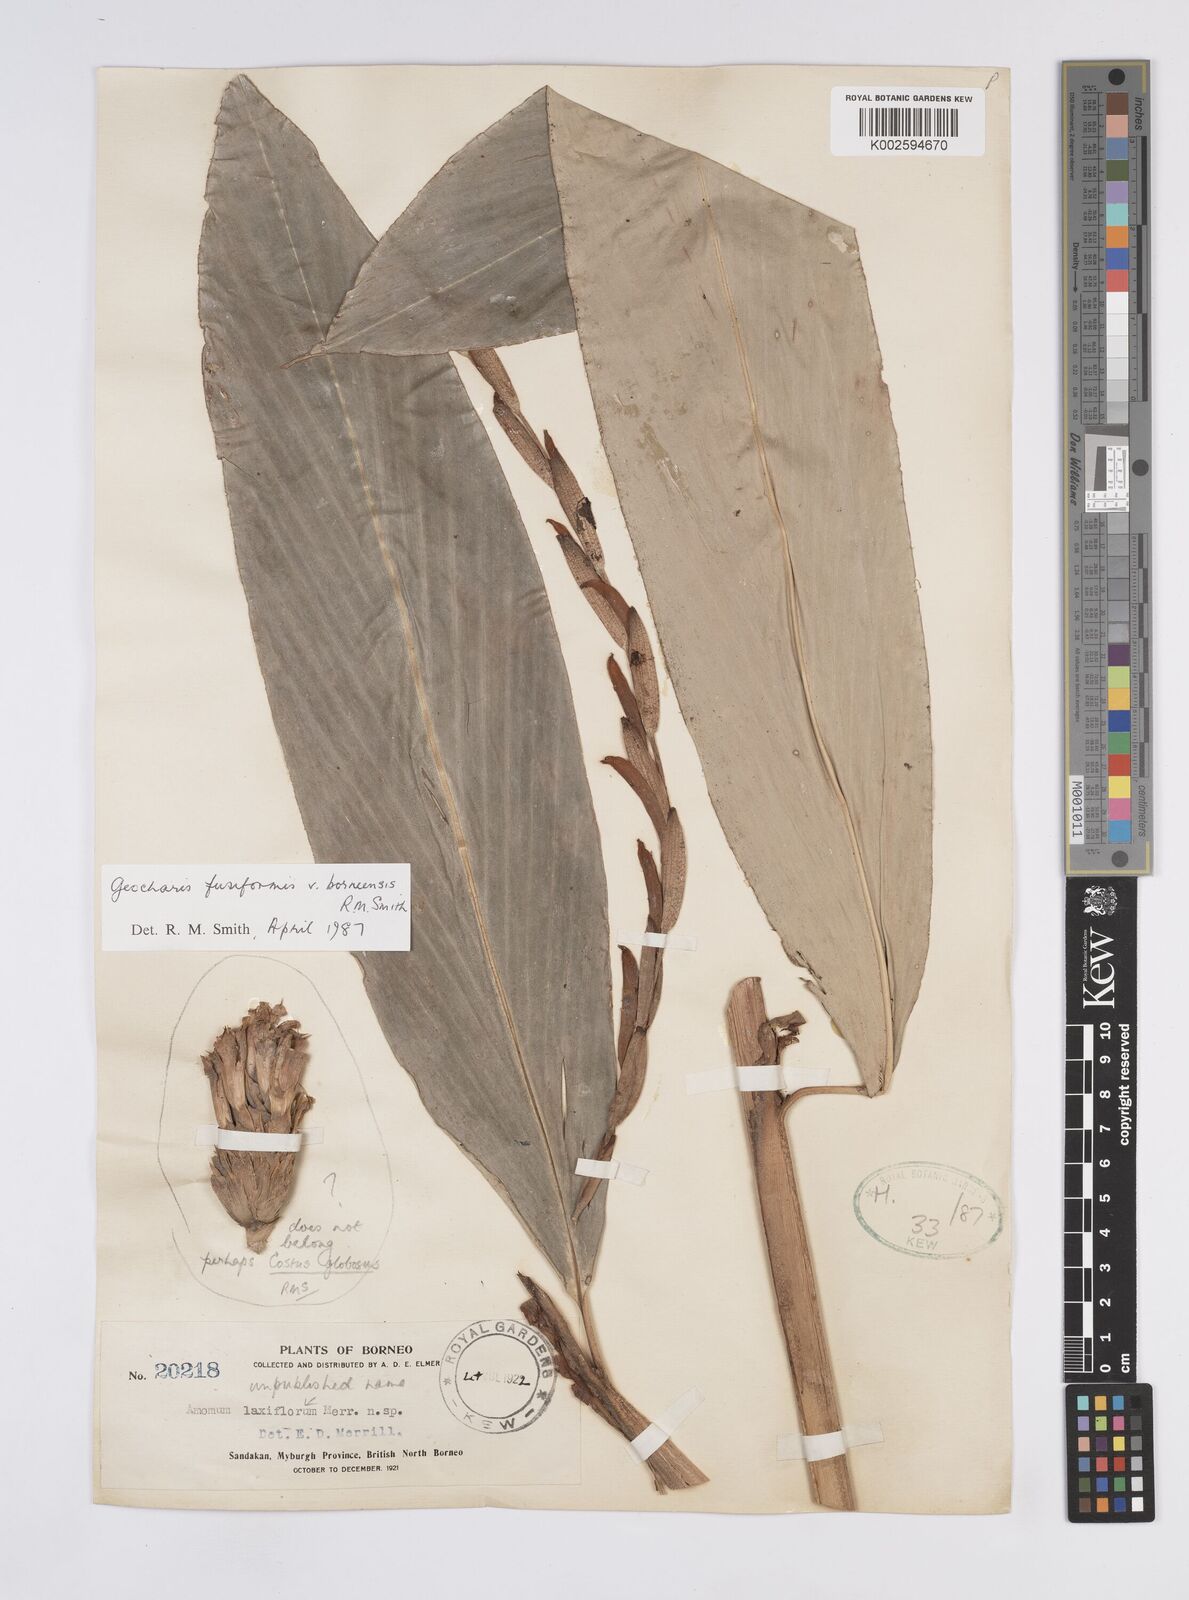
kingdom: Plantae
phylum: Tracheophyta
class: Liliopsida
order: Zingiberales
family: Zingiberaceae
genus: Geocharis
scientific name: Geocharis fusiformis
